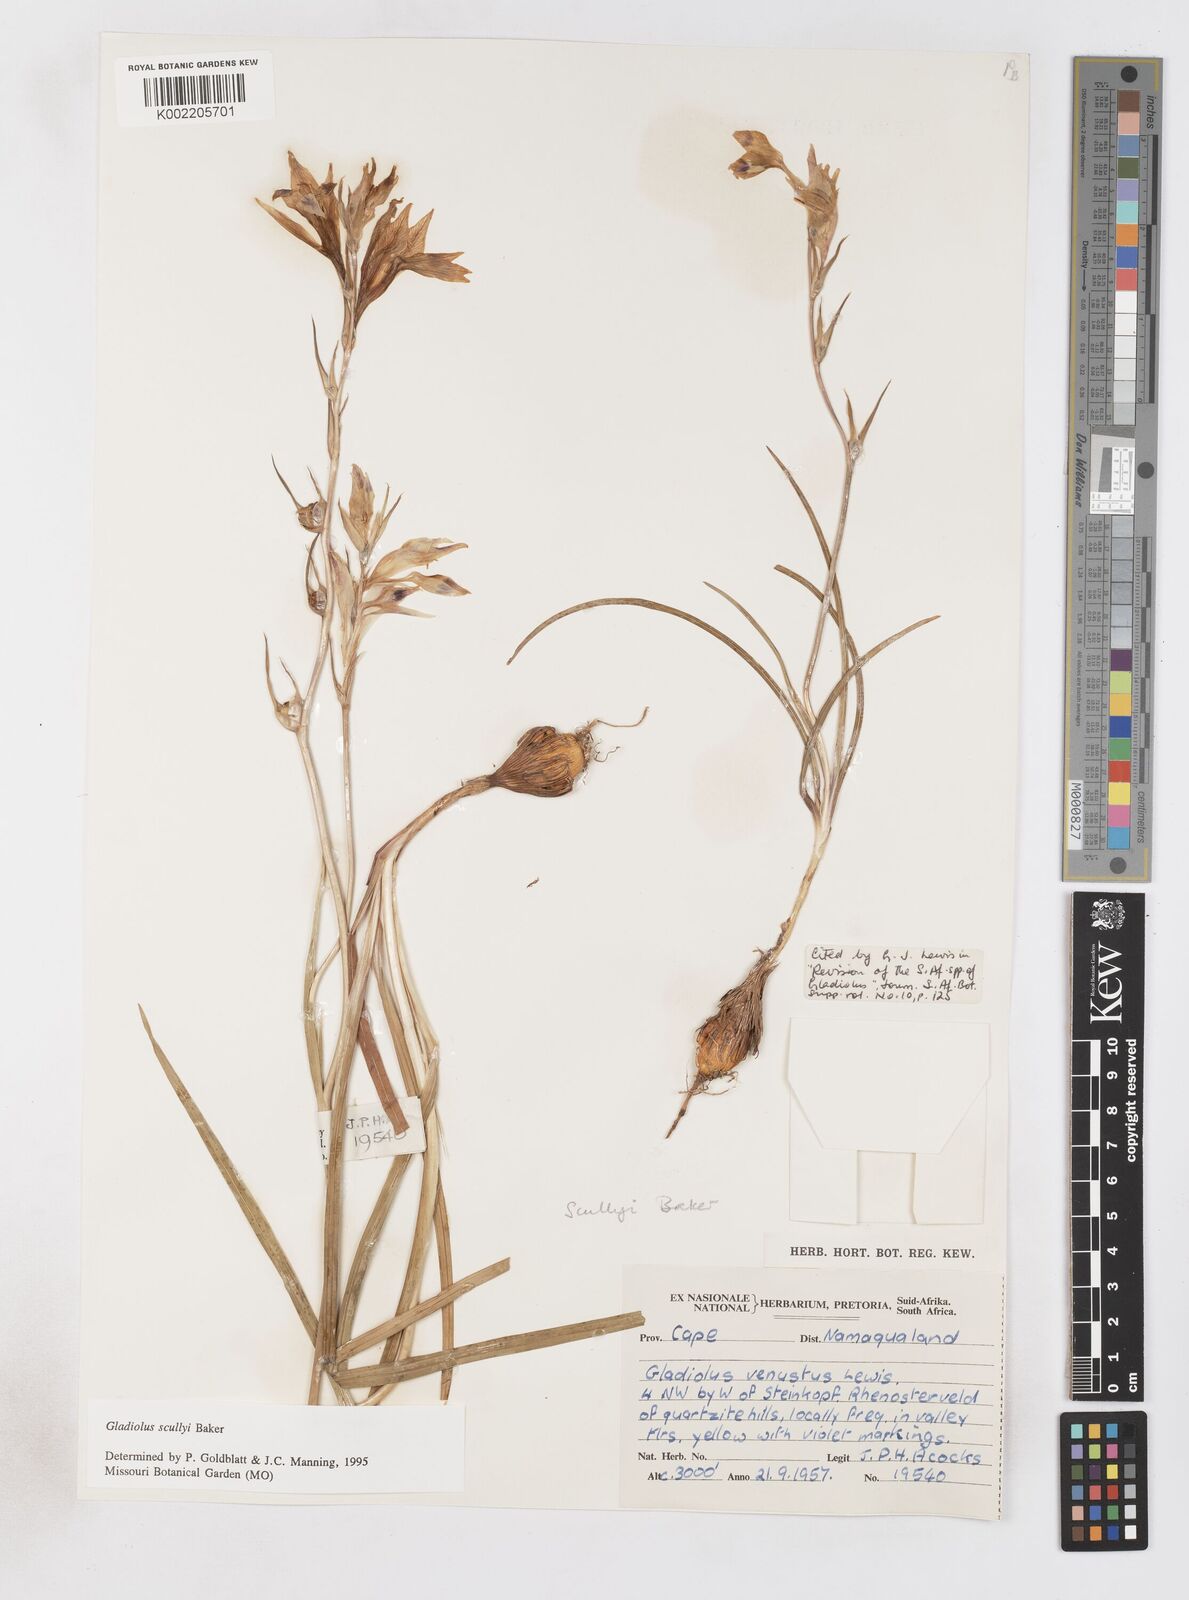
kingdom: Plantae
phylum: Tracheophyta
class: Liliopsida
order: Asparagales
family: Iridaceae
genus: Gladiolus
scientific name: Gladiolus scullyi
